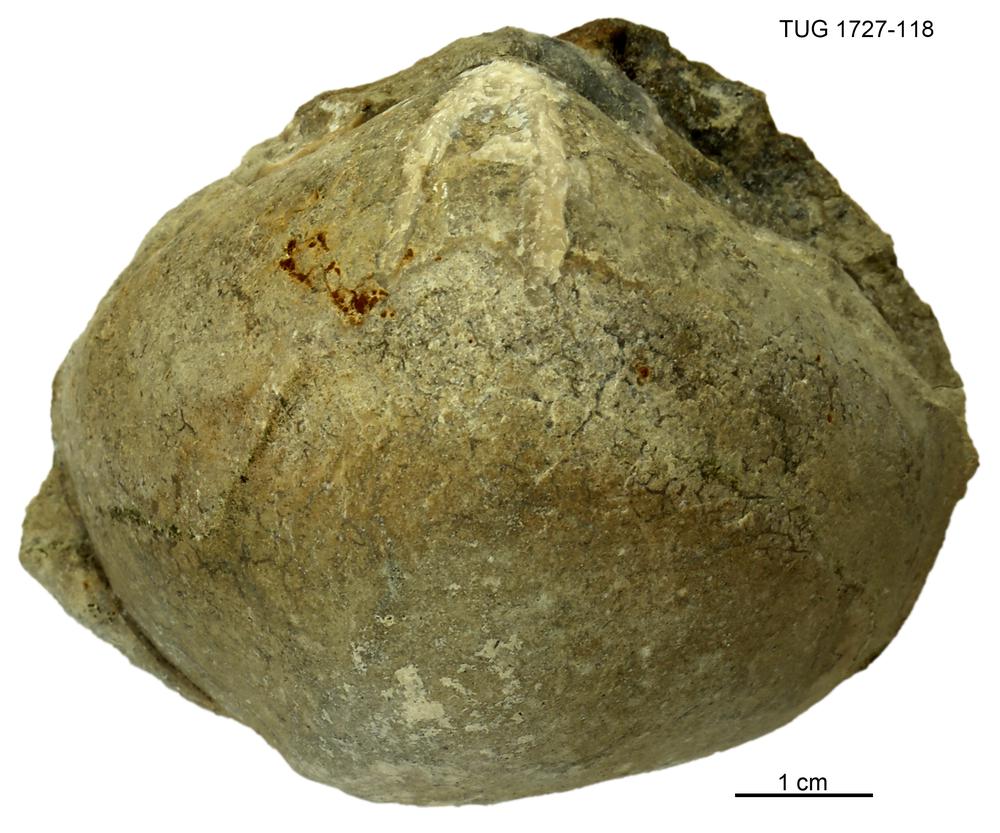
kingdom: Animalia
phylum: Brachiopoda
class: Rhynchonellata
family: Porambonitidae
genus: Porambonites
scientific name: Porambonites
